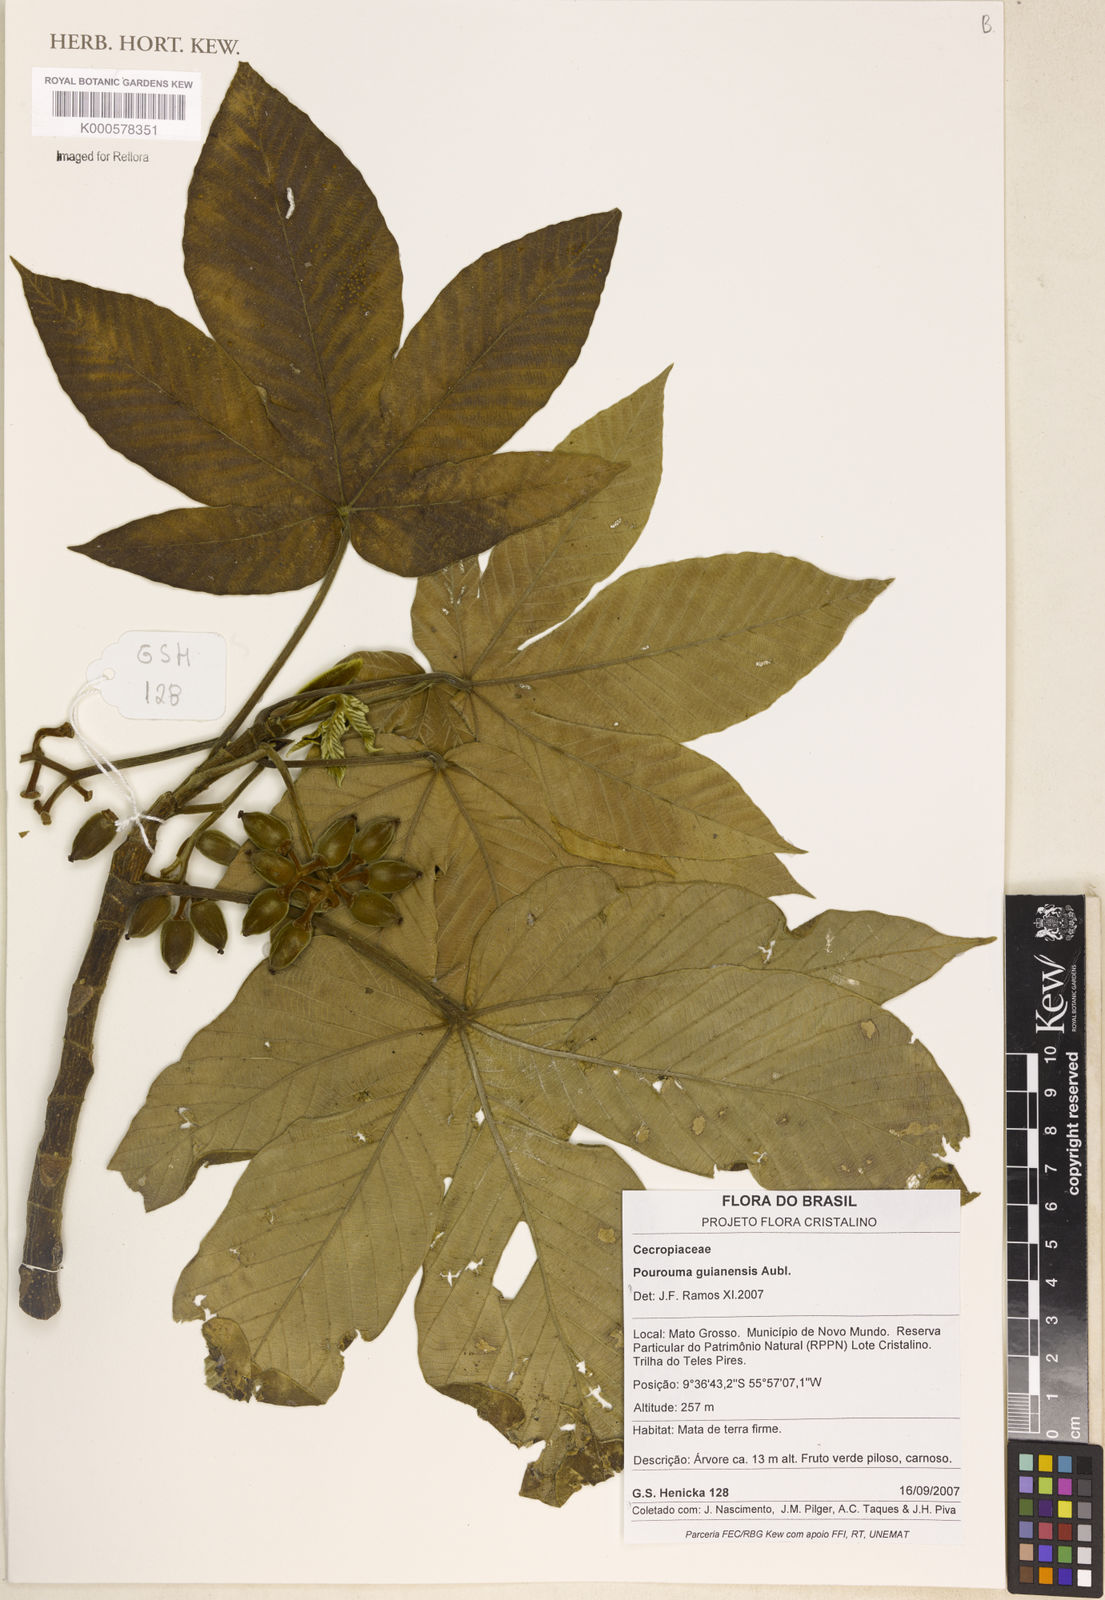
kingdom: Plantae
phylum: Tracheophyta
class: Magnoliopsida
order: Rosales
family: Urticaceae
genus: Pourouma
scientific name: Pourouma guianensis
